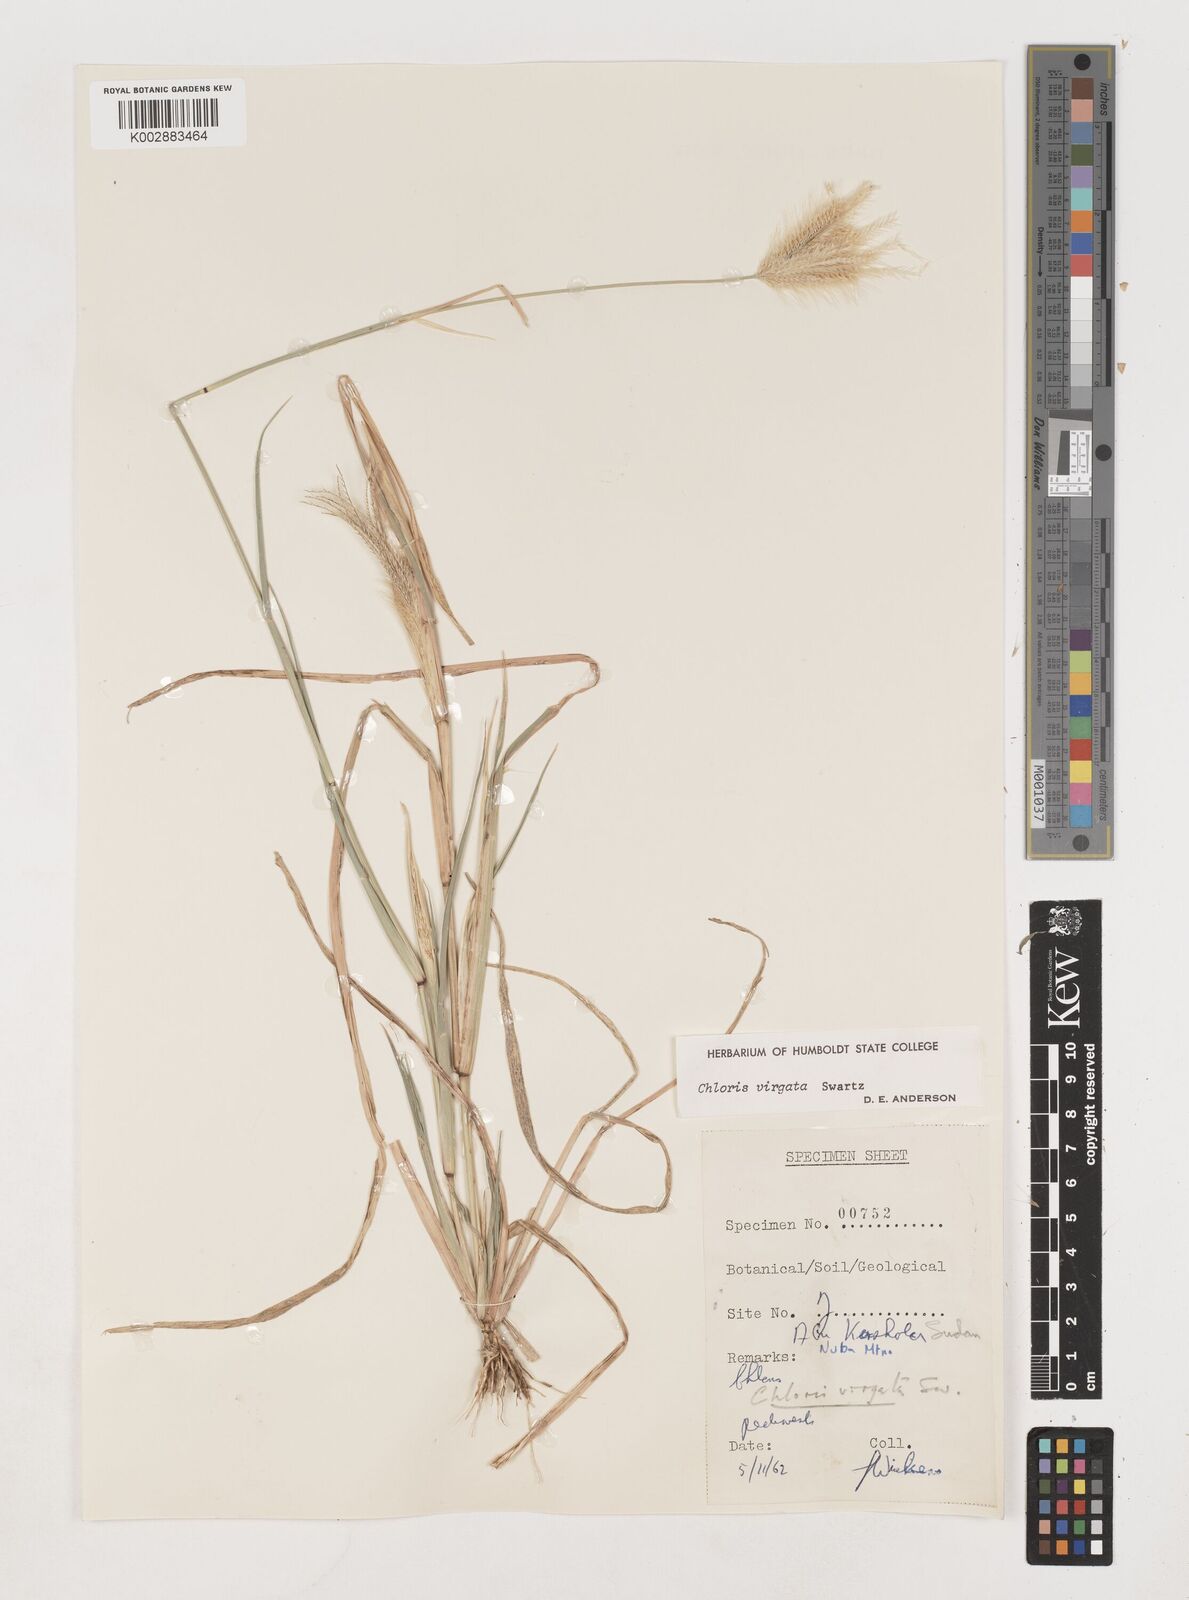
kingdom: Plantae
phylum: Tracheophyta
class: Liliopsida
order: Poales
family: Poaceae
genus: Chloris
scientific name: Chloris virgata
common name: Feathery rhodes-grass
